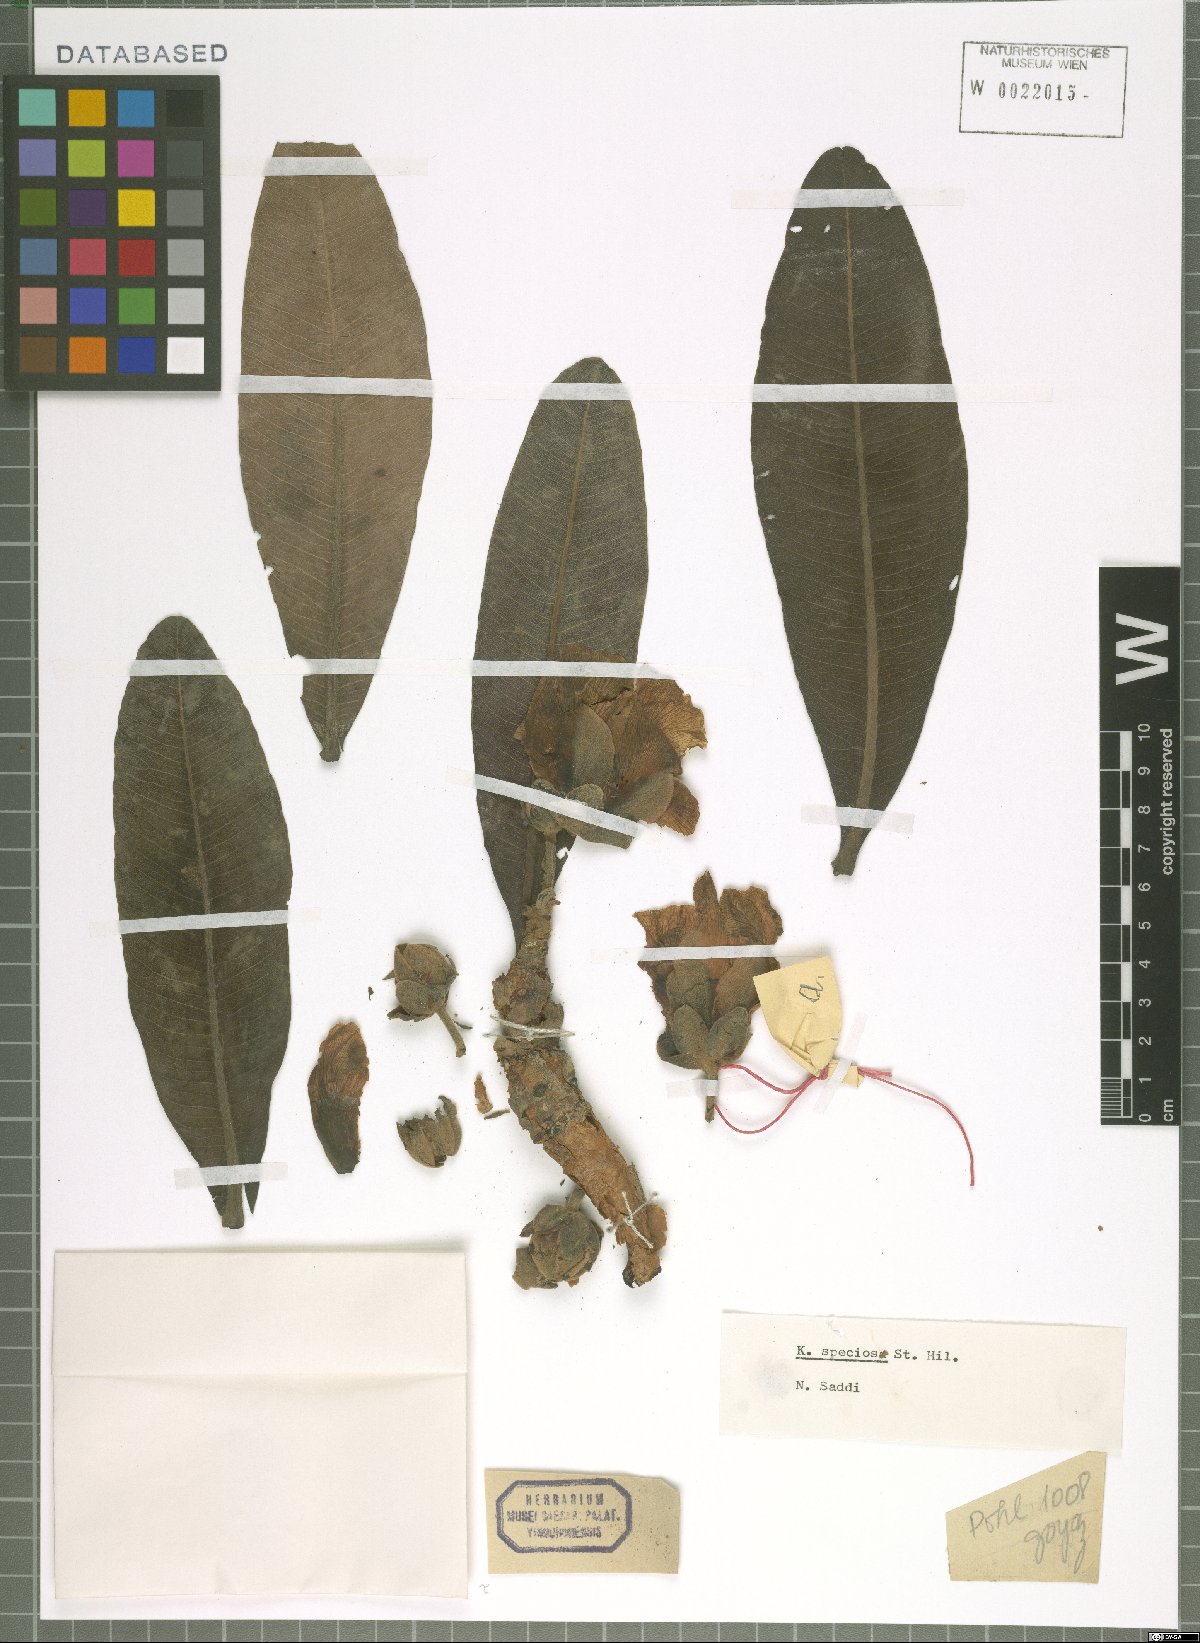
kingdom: Plantae
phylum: Tracheophyta
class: Magnoliopsida
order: Malpighiales
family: Calophyllaceae
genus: Kielmeyera
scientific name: Kielmeyera speciosa
